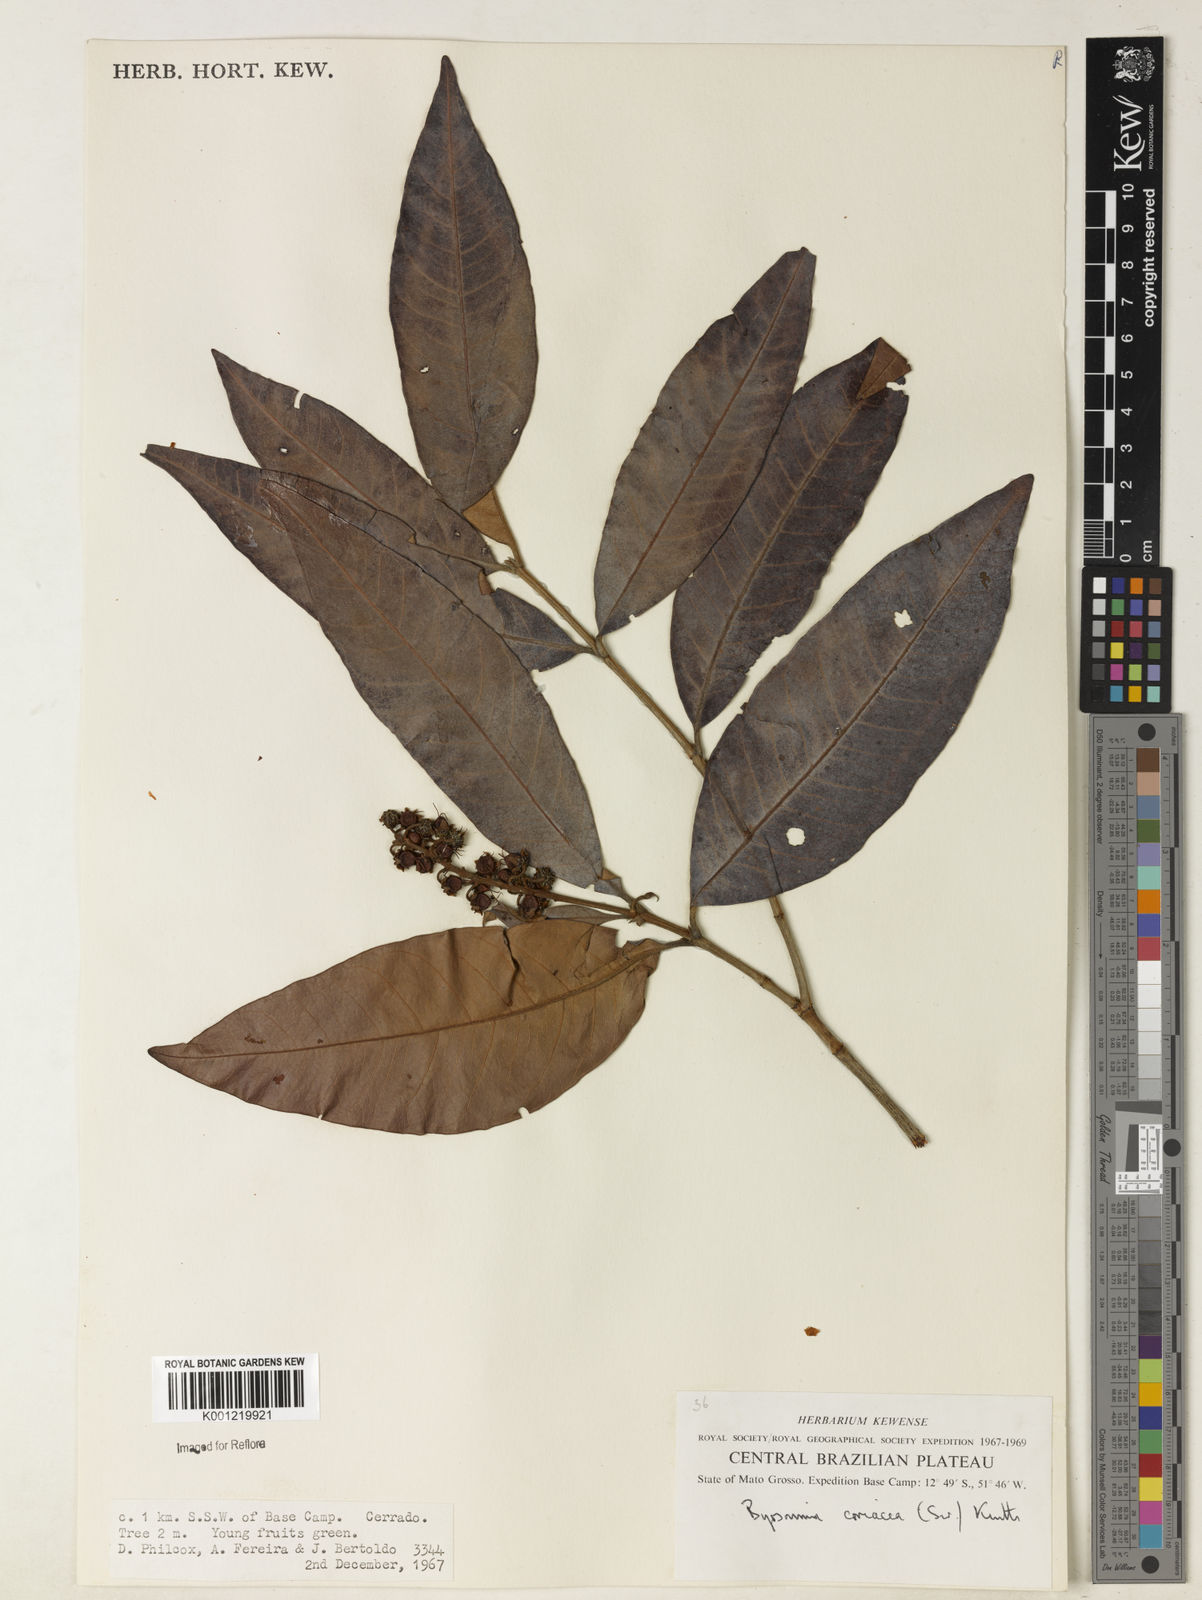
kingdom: Plantae
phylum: Tracheophyta
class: Magnoliopsida
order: Malpighiales
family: Malpighiaceae
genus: Byrsonima
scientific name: Byrsonima
